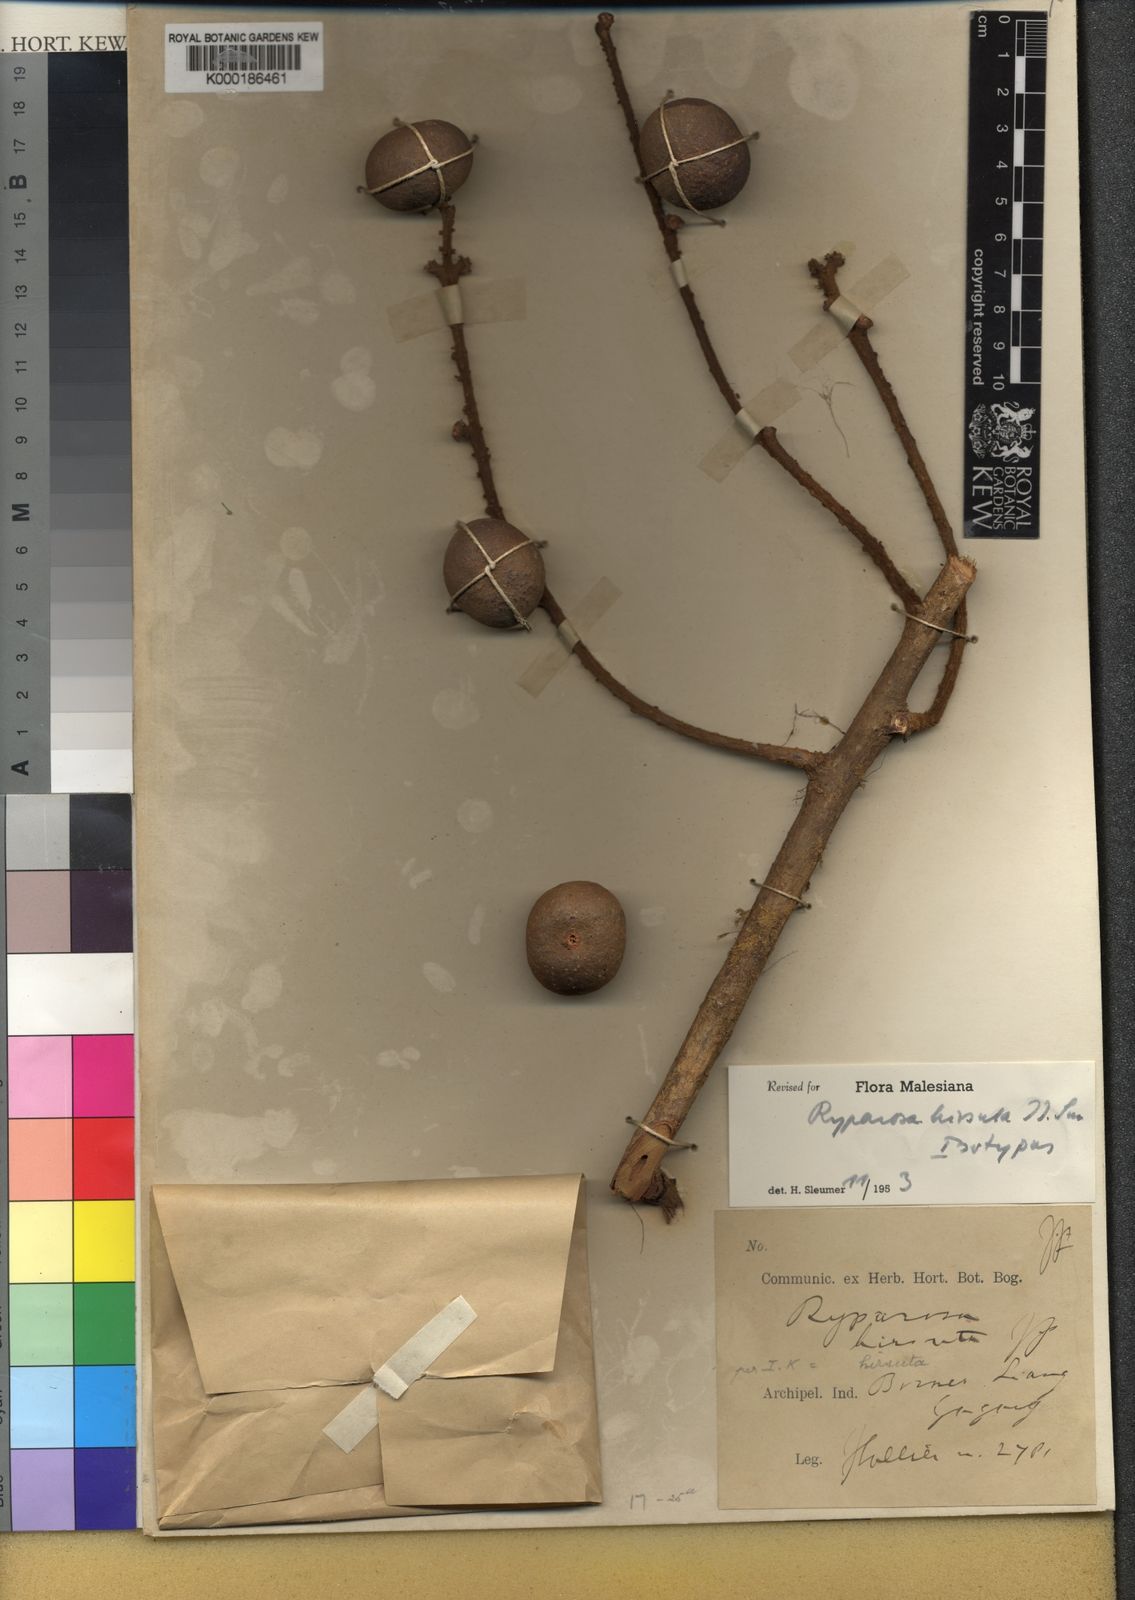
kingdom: Plantae
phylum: Tracheophyta
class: Magnoliopsida
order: Malpighiales
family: Achariaceae
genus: Ryparosa
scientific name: Ryparosa hirsuta
